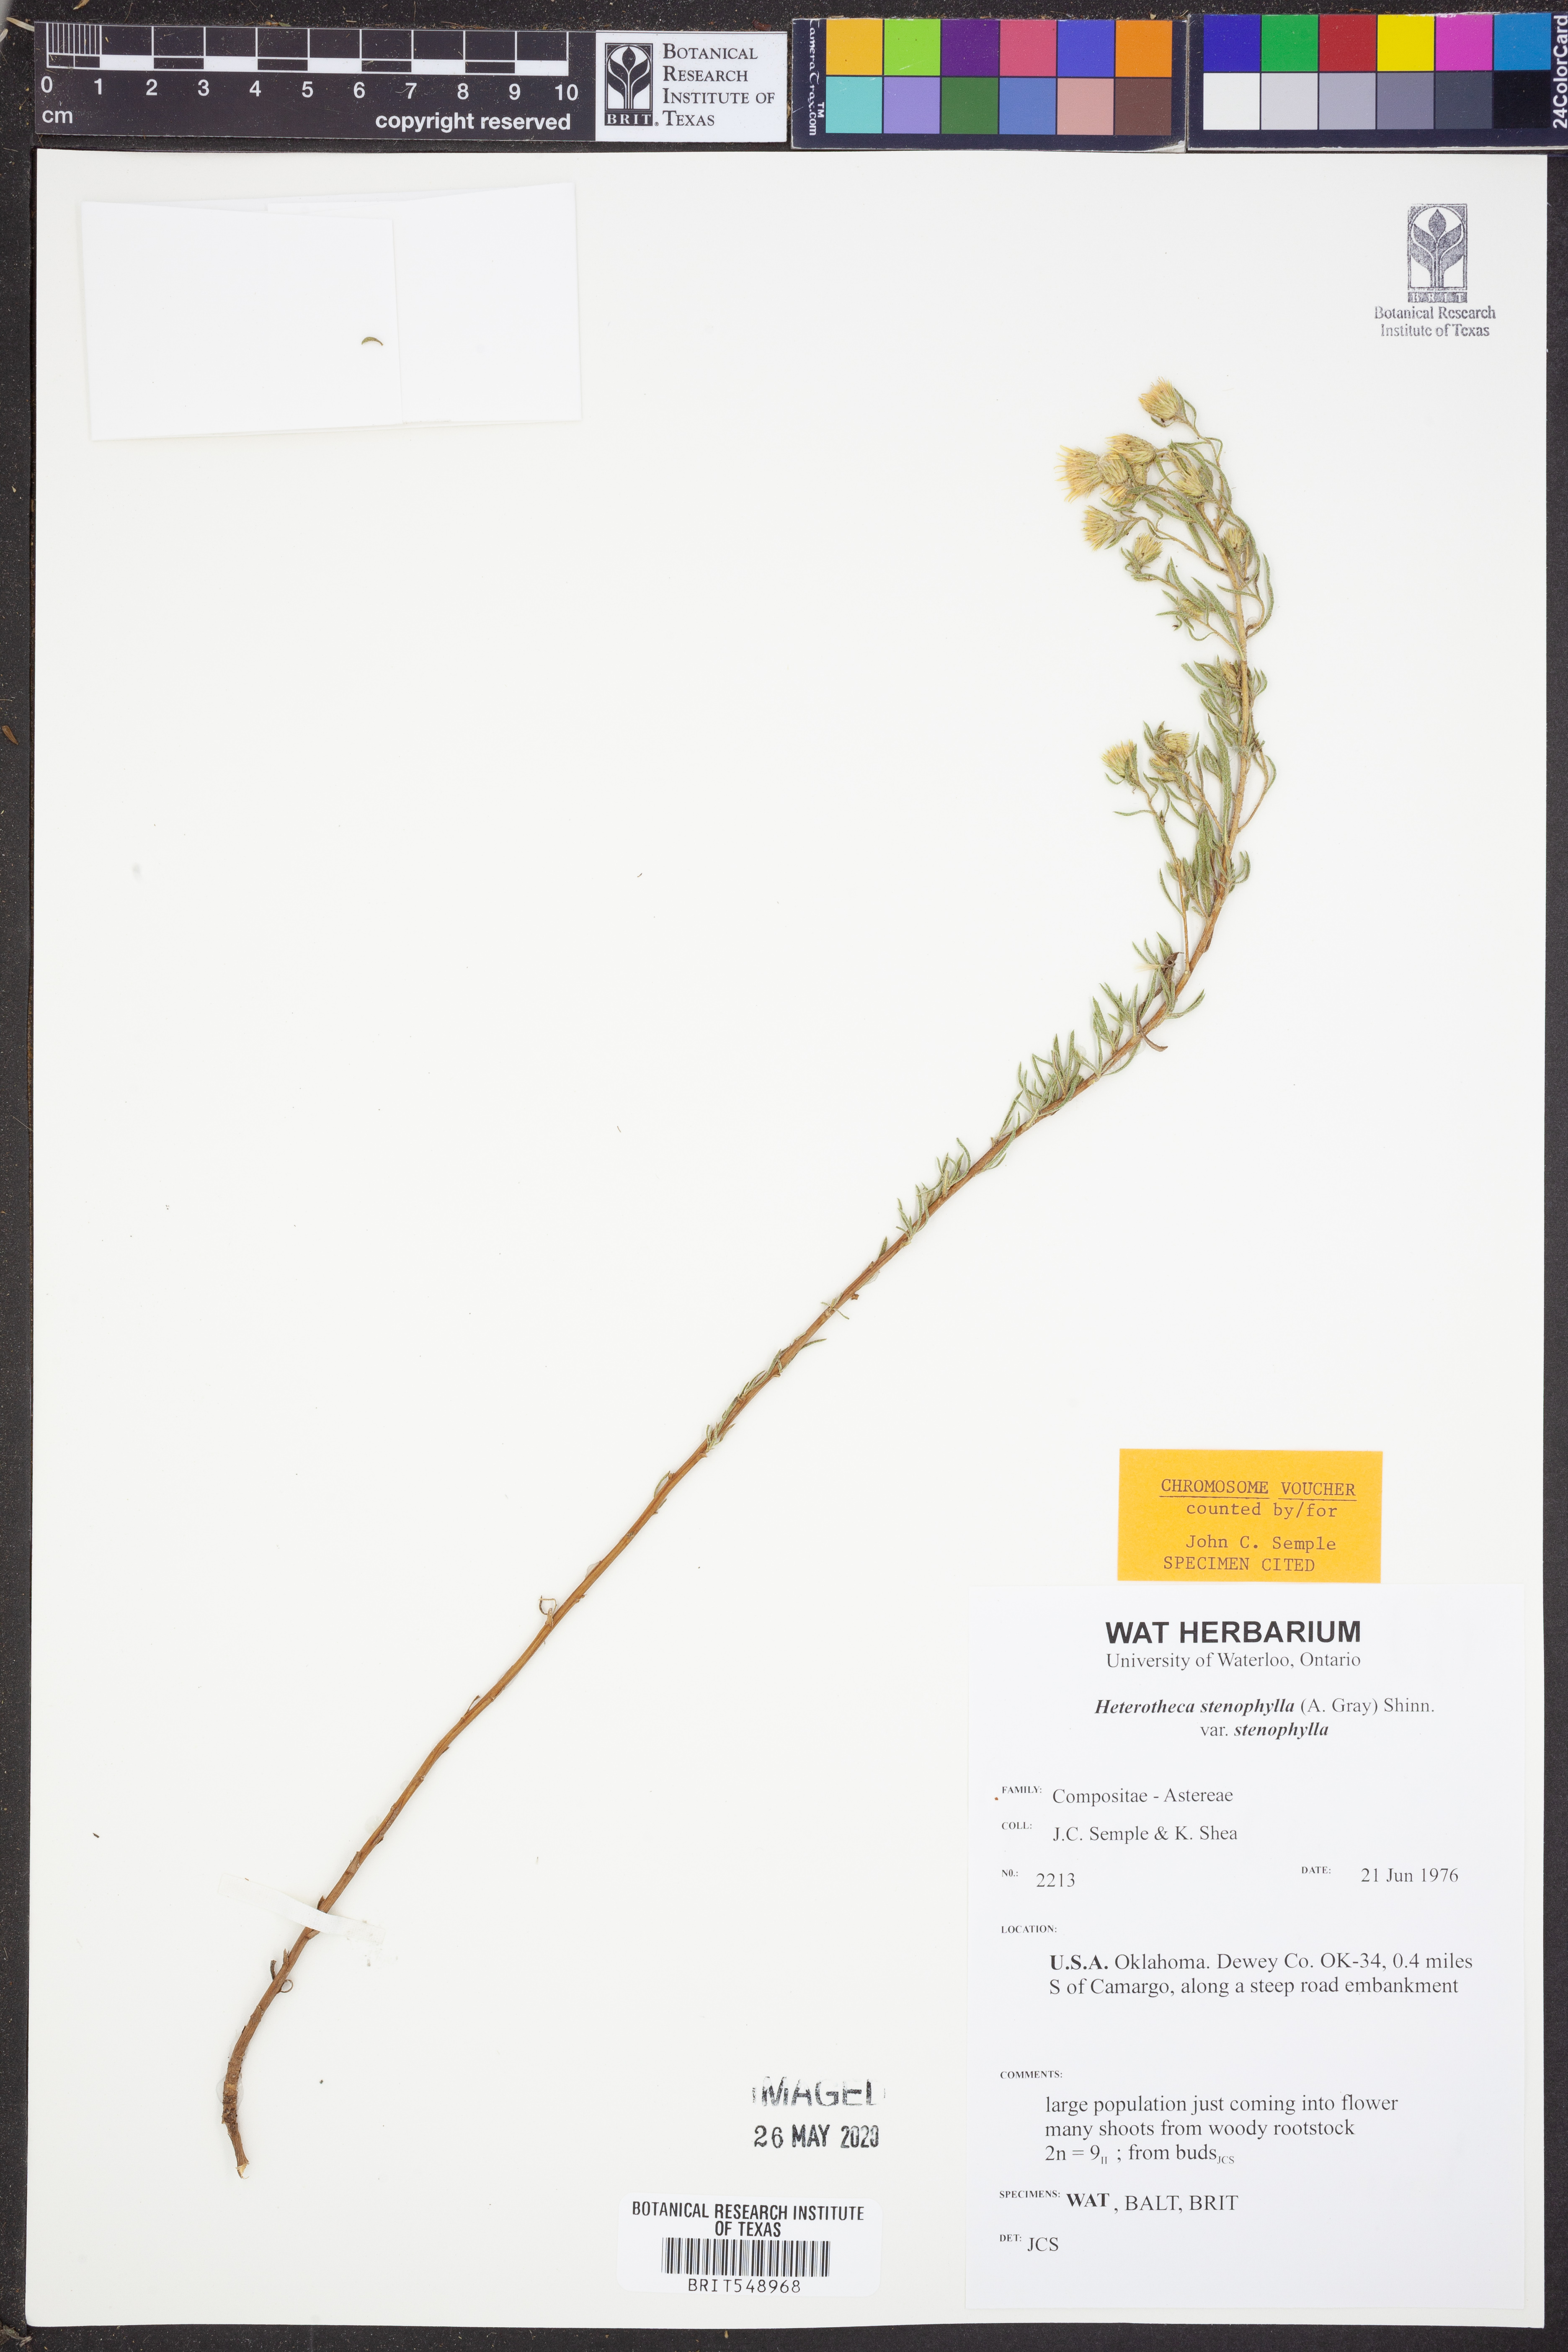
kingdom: Plantae
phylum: Tracheophyta
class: Magnoliopsida
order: Asterales
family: Asteraceae
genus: Heterotheca
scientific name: Heterotheca stenophylla
